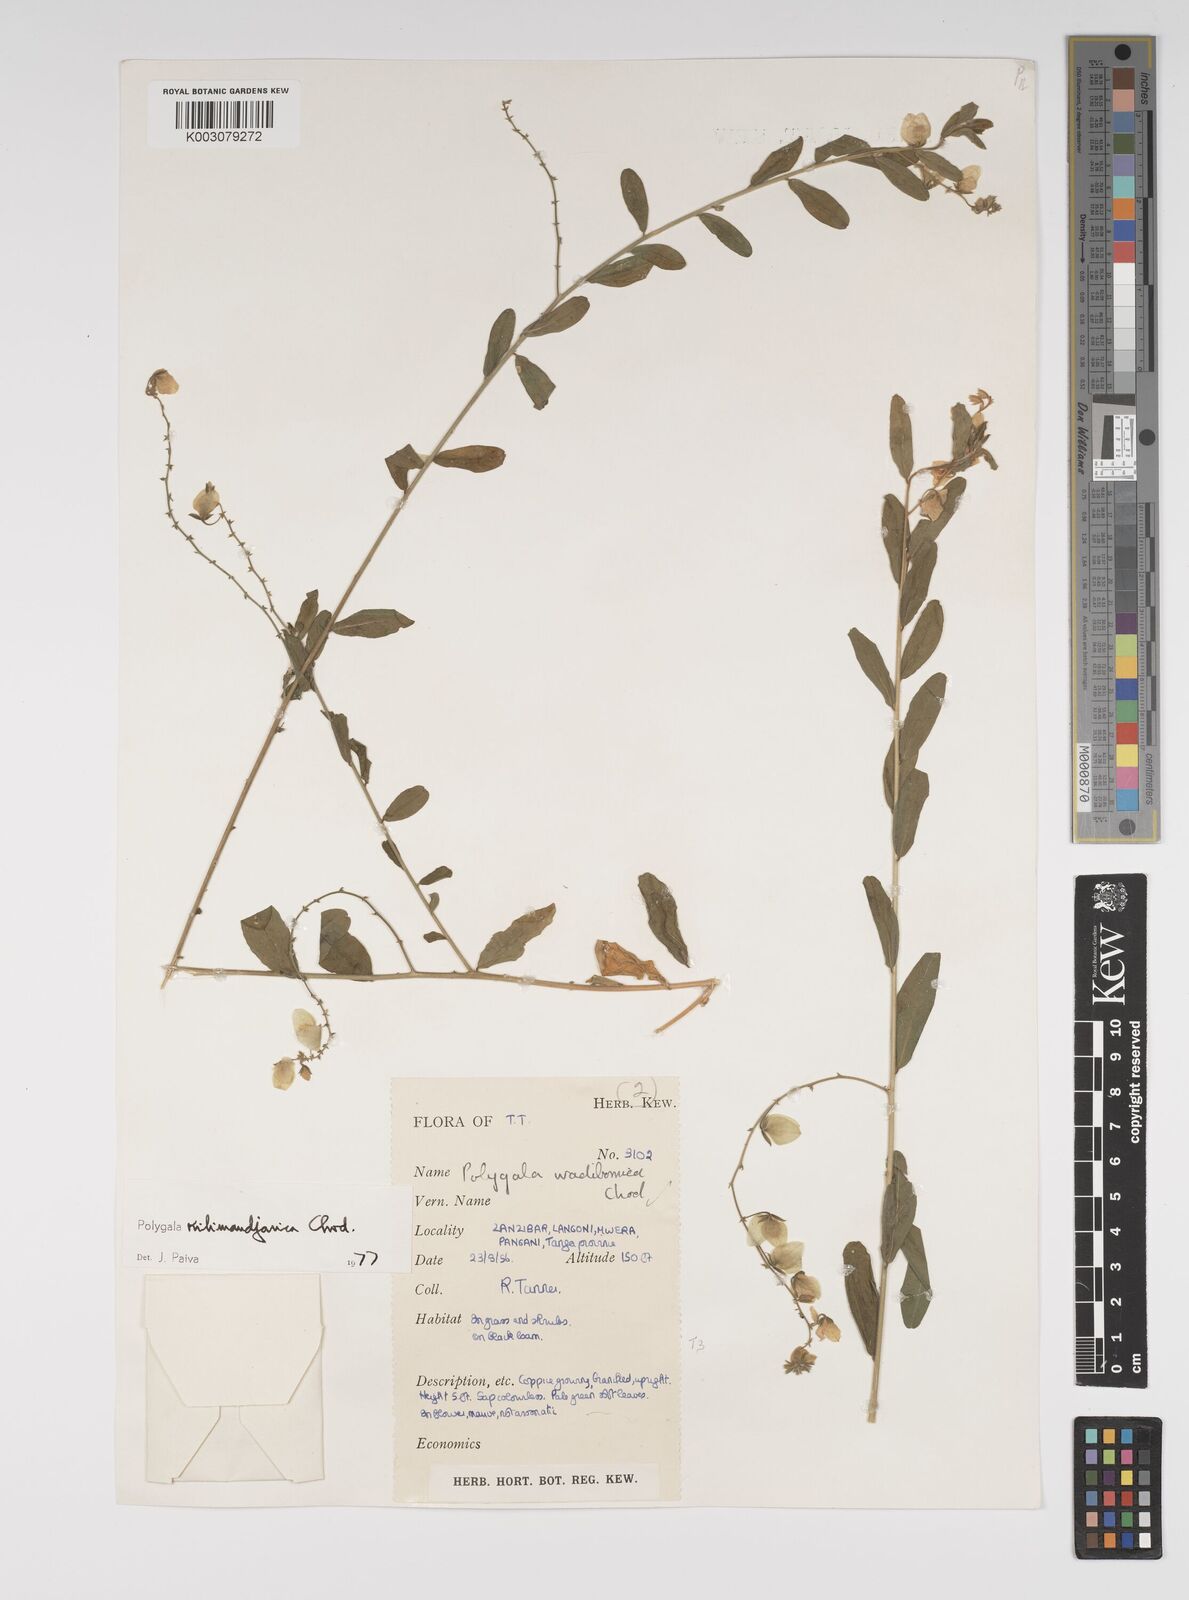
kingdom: Plantae
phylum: Tracheophyta
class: Magnoliopsida
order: Fabales
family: Polygalaceae
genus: Polygala
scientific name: Polygala kilimandjarica
